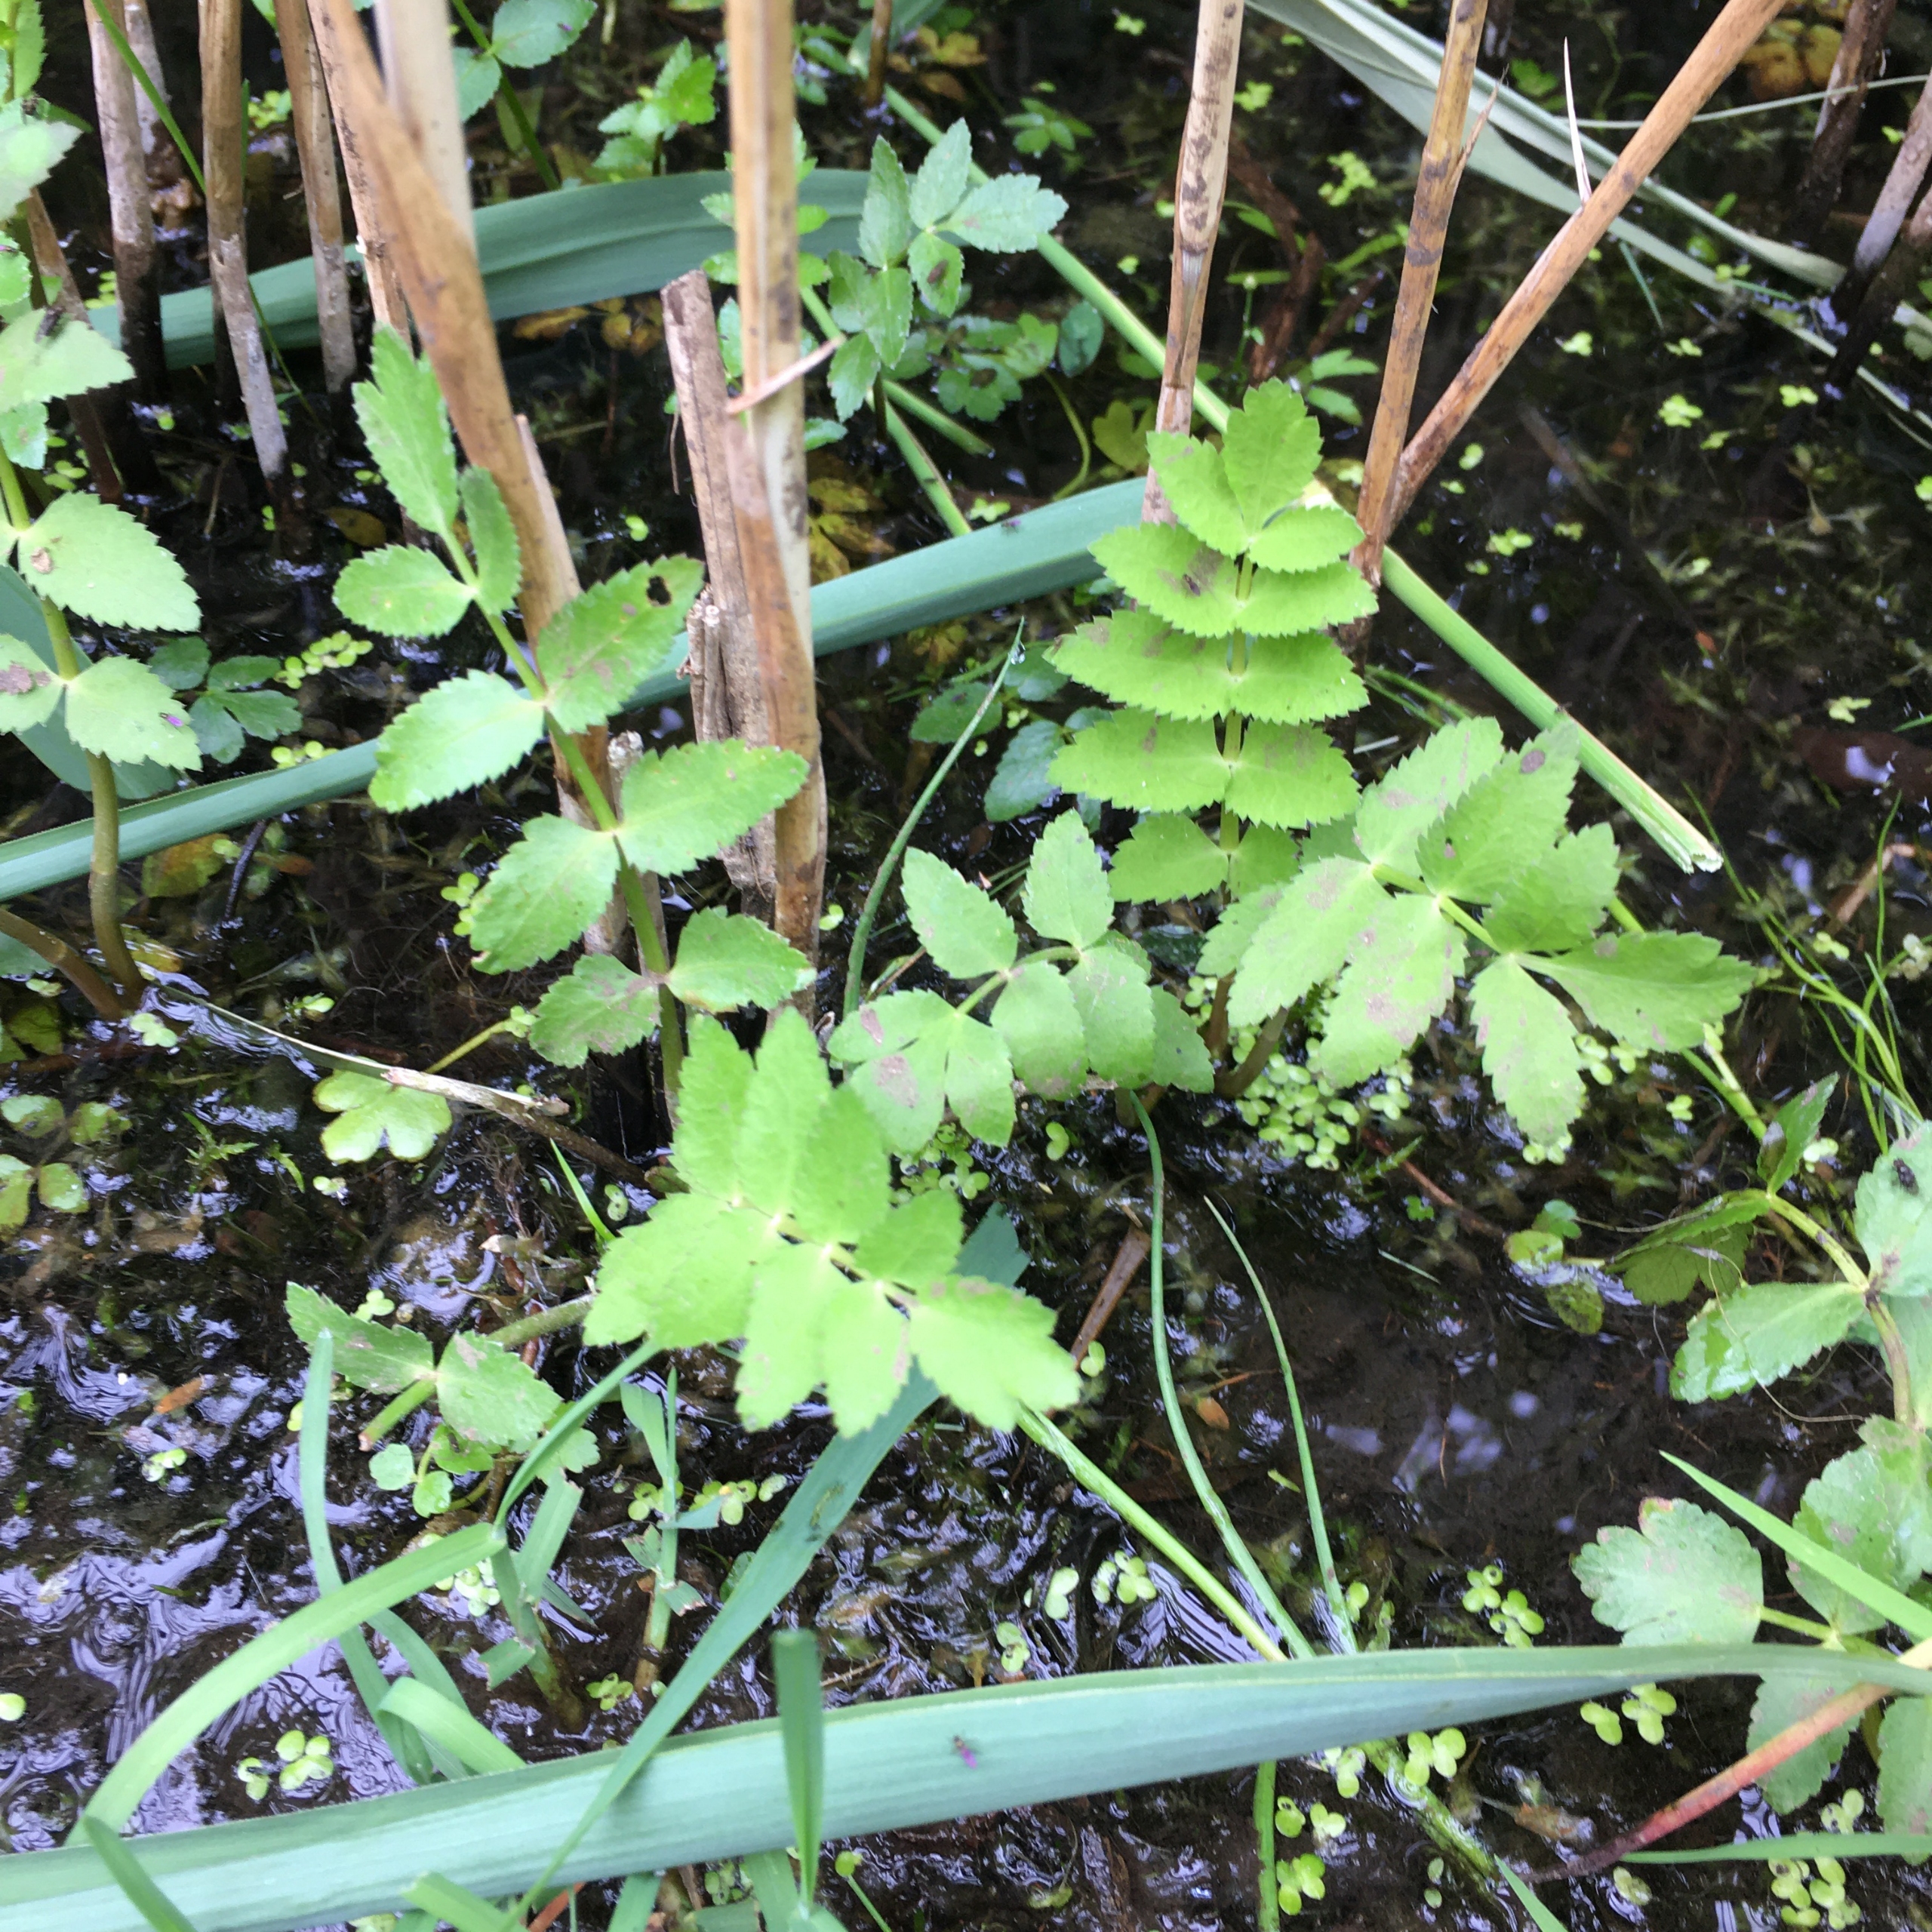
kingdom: Plantae
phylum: Tracheophyta
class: Magnoliopsida
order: Apiales
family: Apiaceae
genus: Berula
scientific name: Berula erecta
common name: Sideskærm
